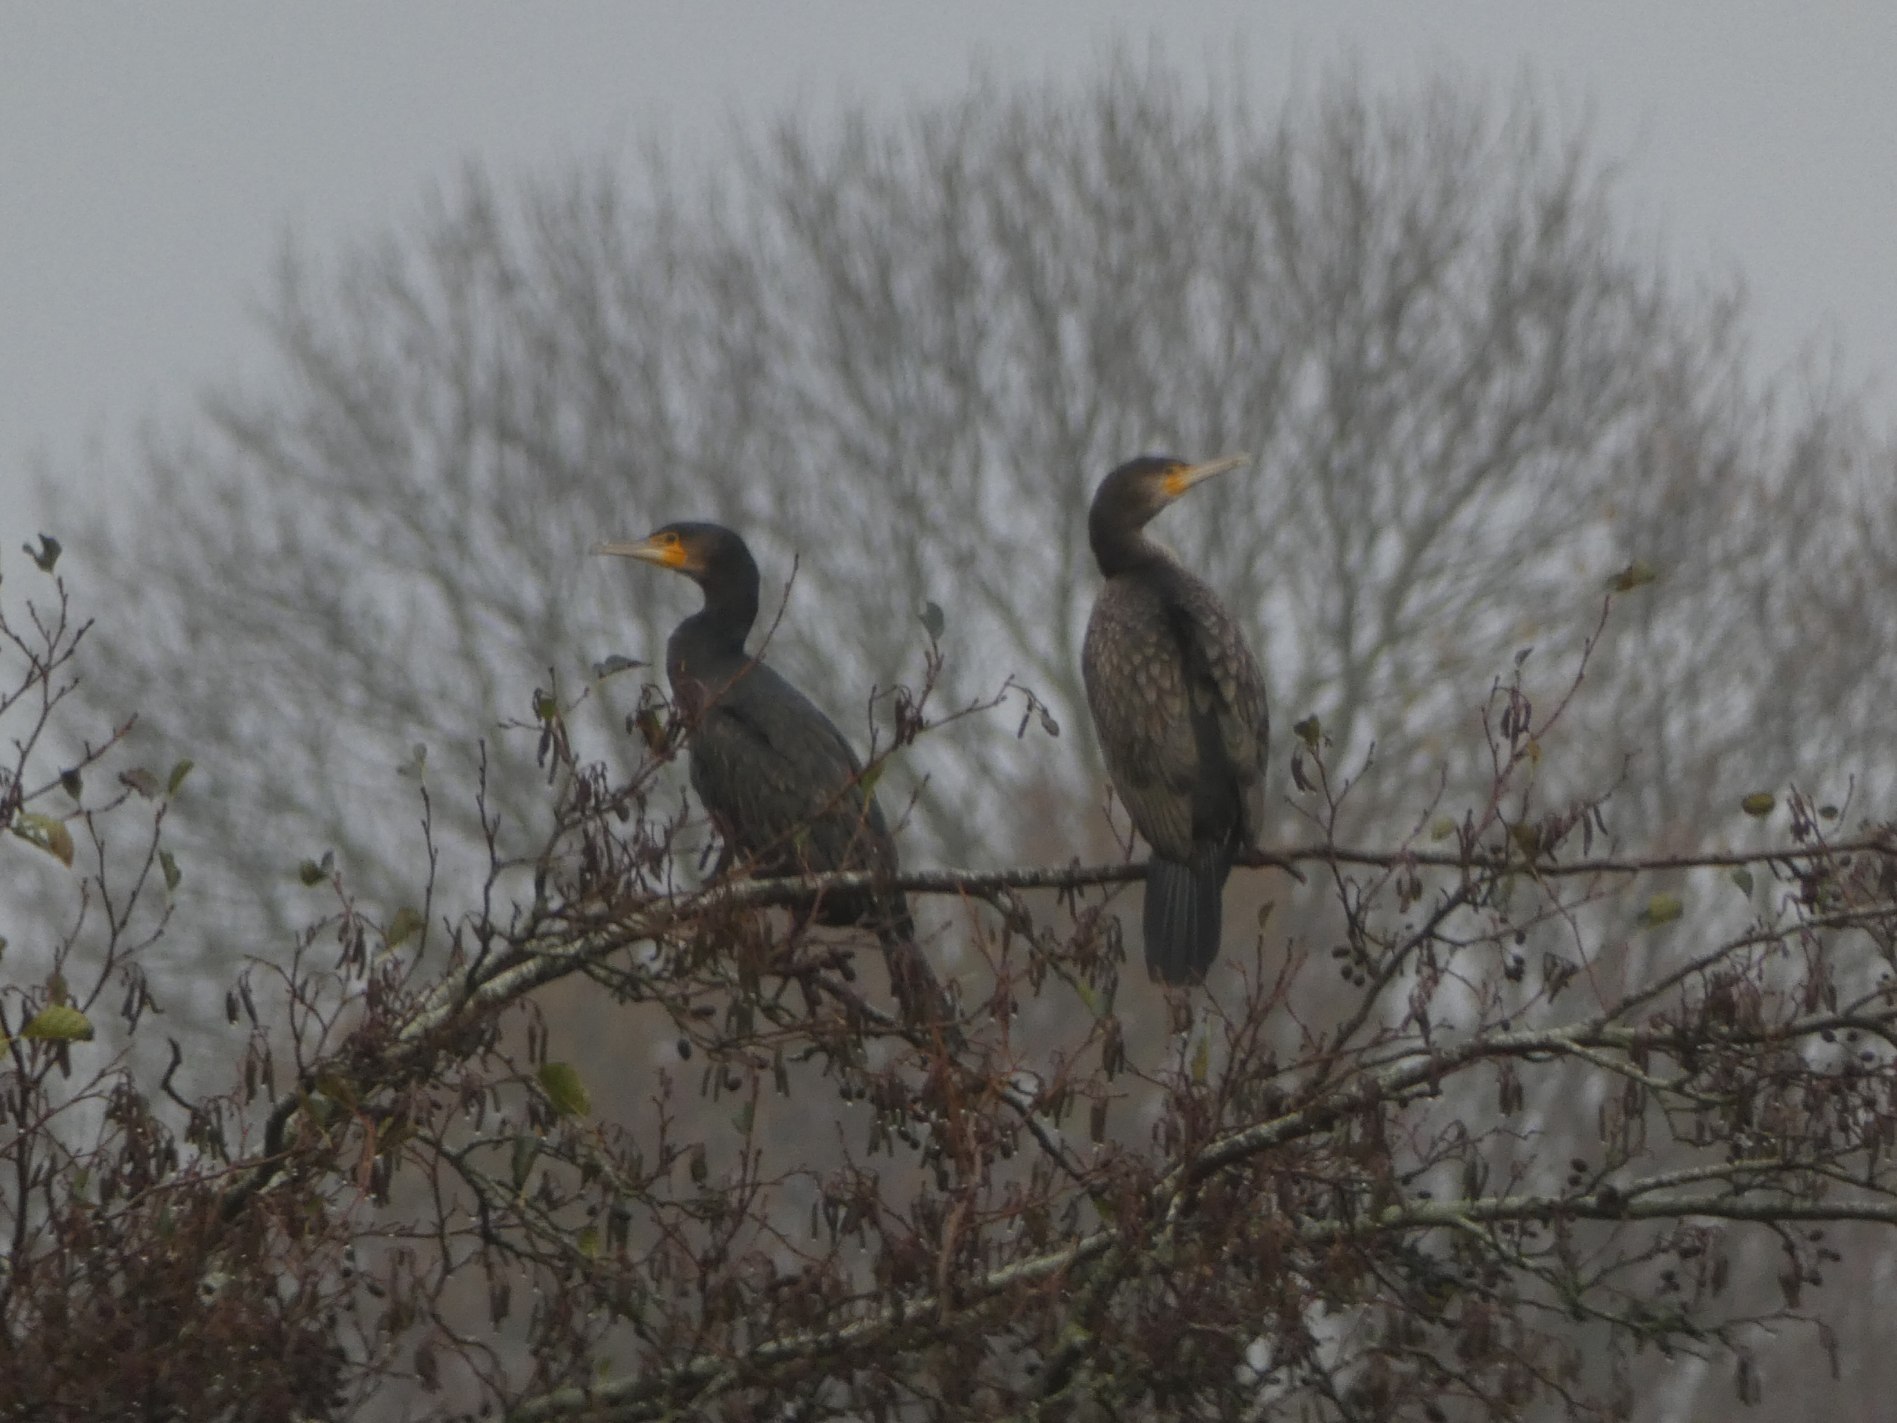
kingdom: Animalia
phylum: Chordata
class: Aves
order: Suliformes
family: Phalacrocoracidae
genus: Phalacrocorax
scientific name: Phalacrocorax carbo
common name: Skarv
